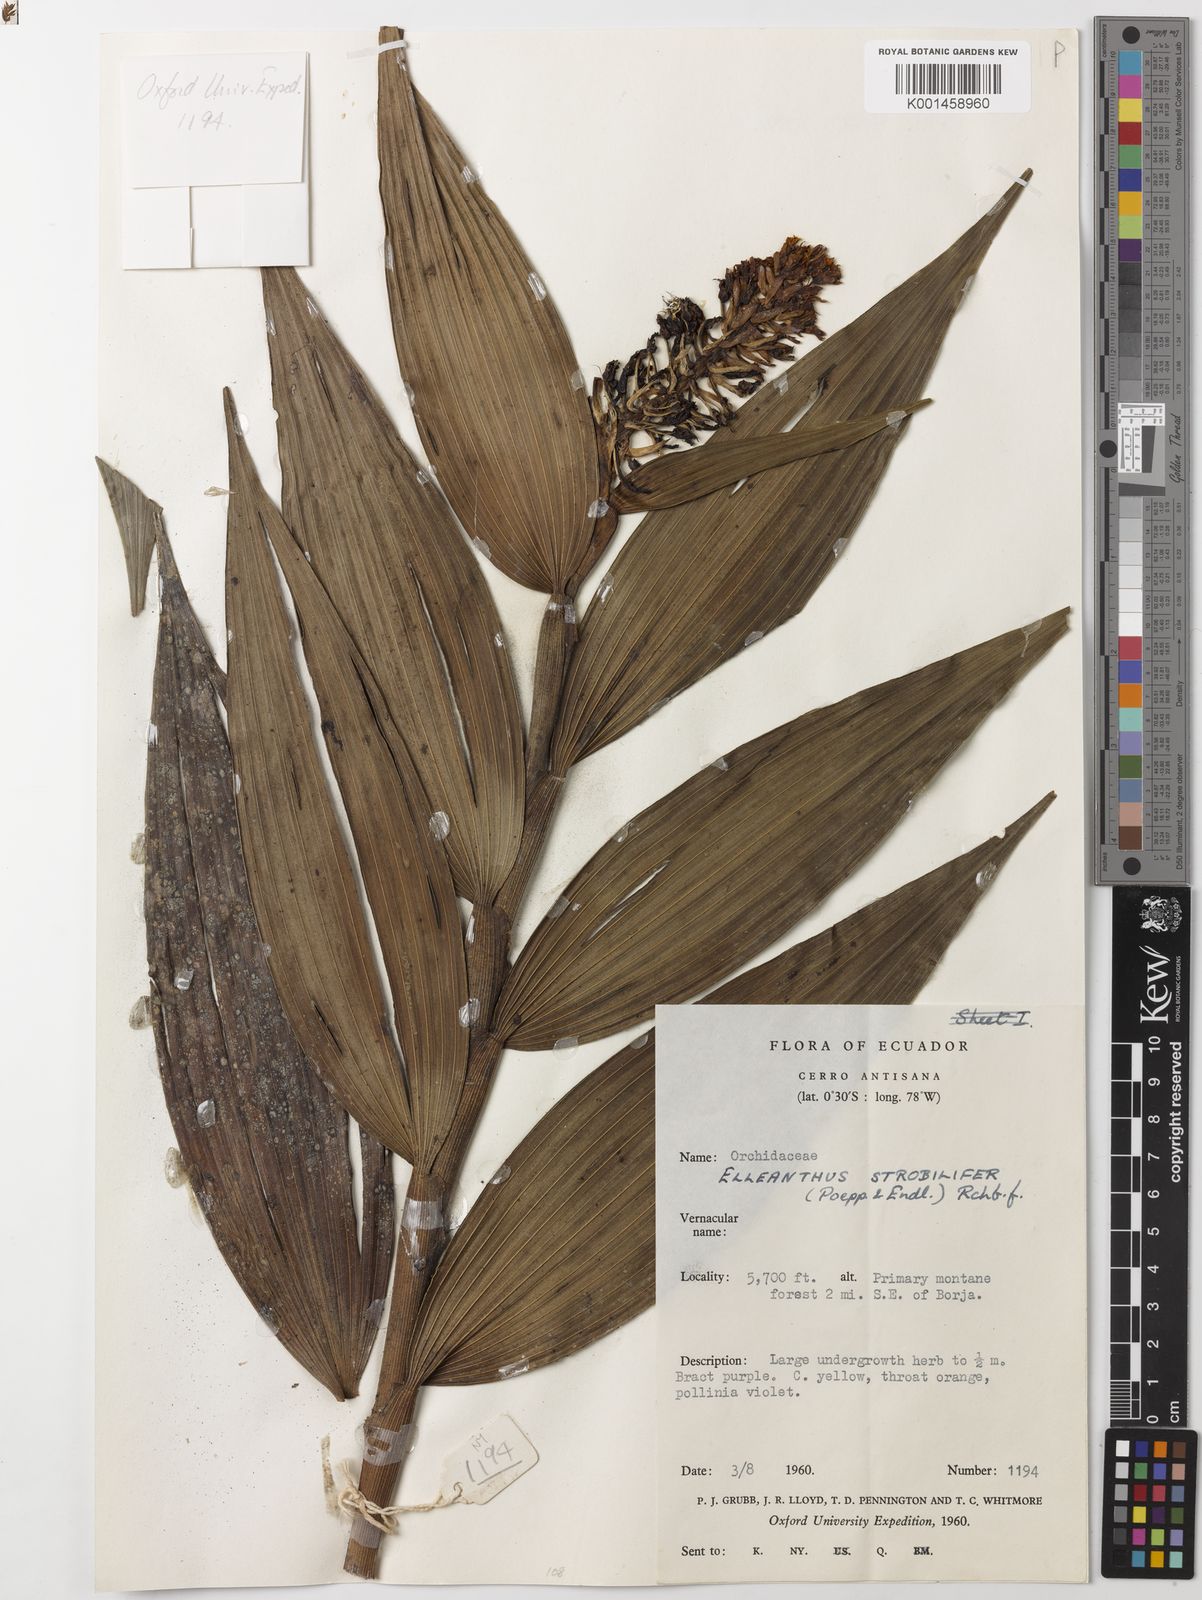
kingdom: Plantae
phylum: Tracheophyta
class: Liliopsida
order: Asparagales
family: Orchidaceae
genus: Elleanthus
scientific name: Elleanthus strobilifer
